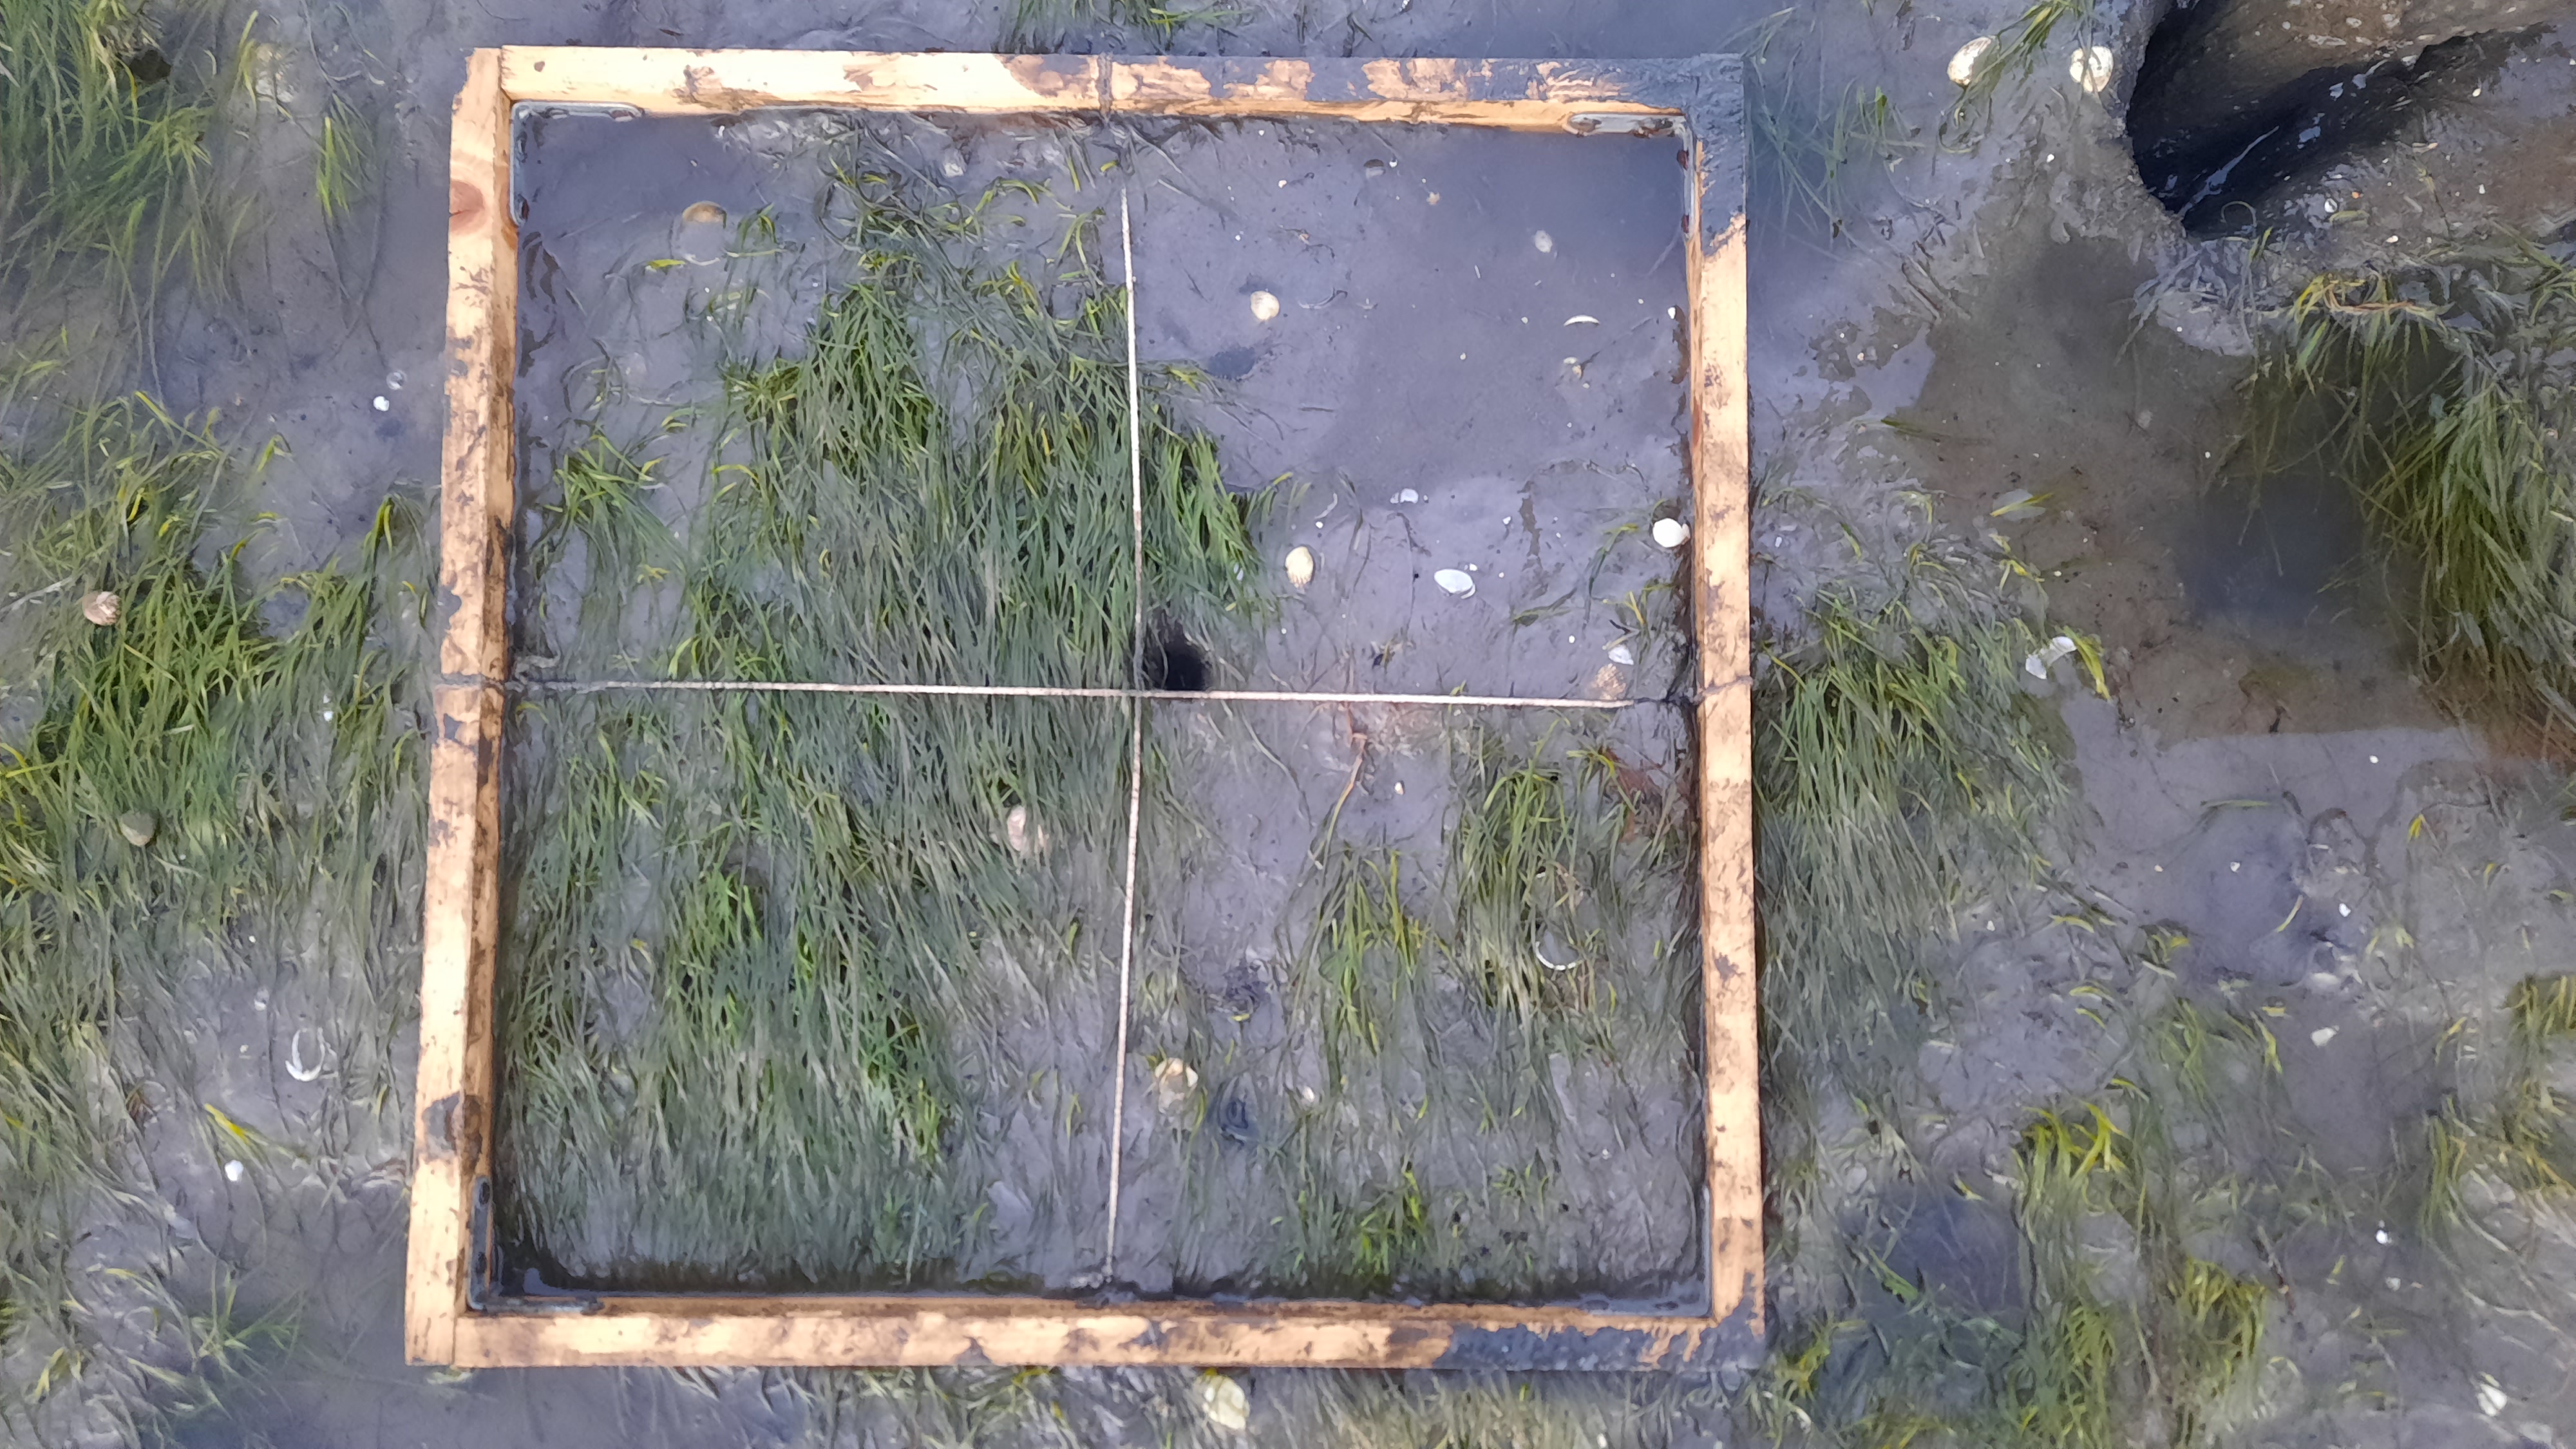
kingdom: Plantae
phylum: Tracheophyta
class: Liliopsida
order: Alismatales
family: Zosteraceae
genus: Zostera
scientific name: Zostera noltii
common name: Dwarf eelgrass
